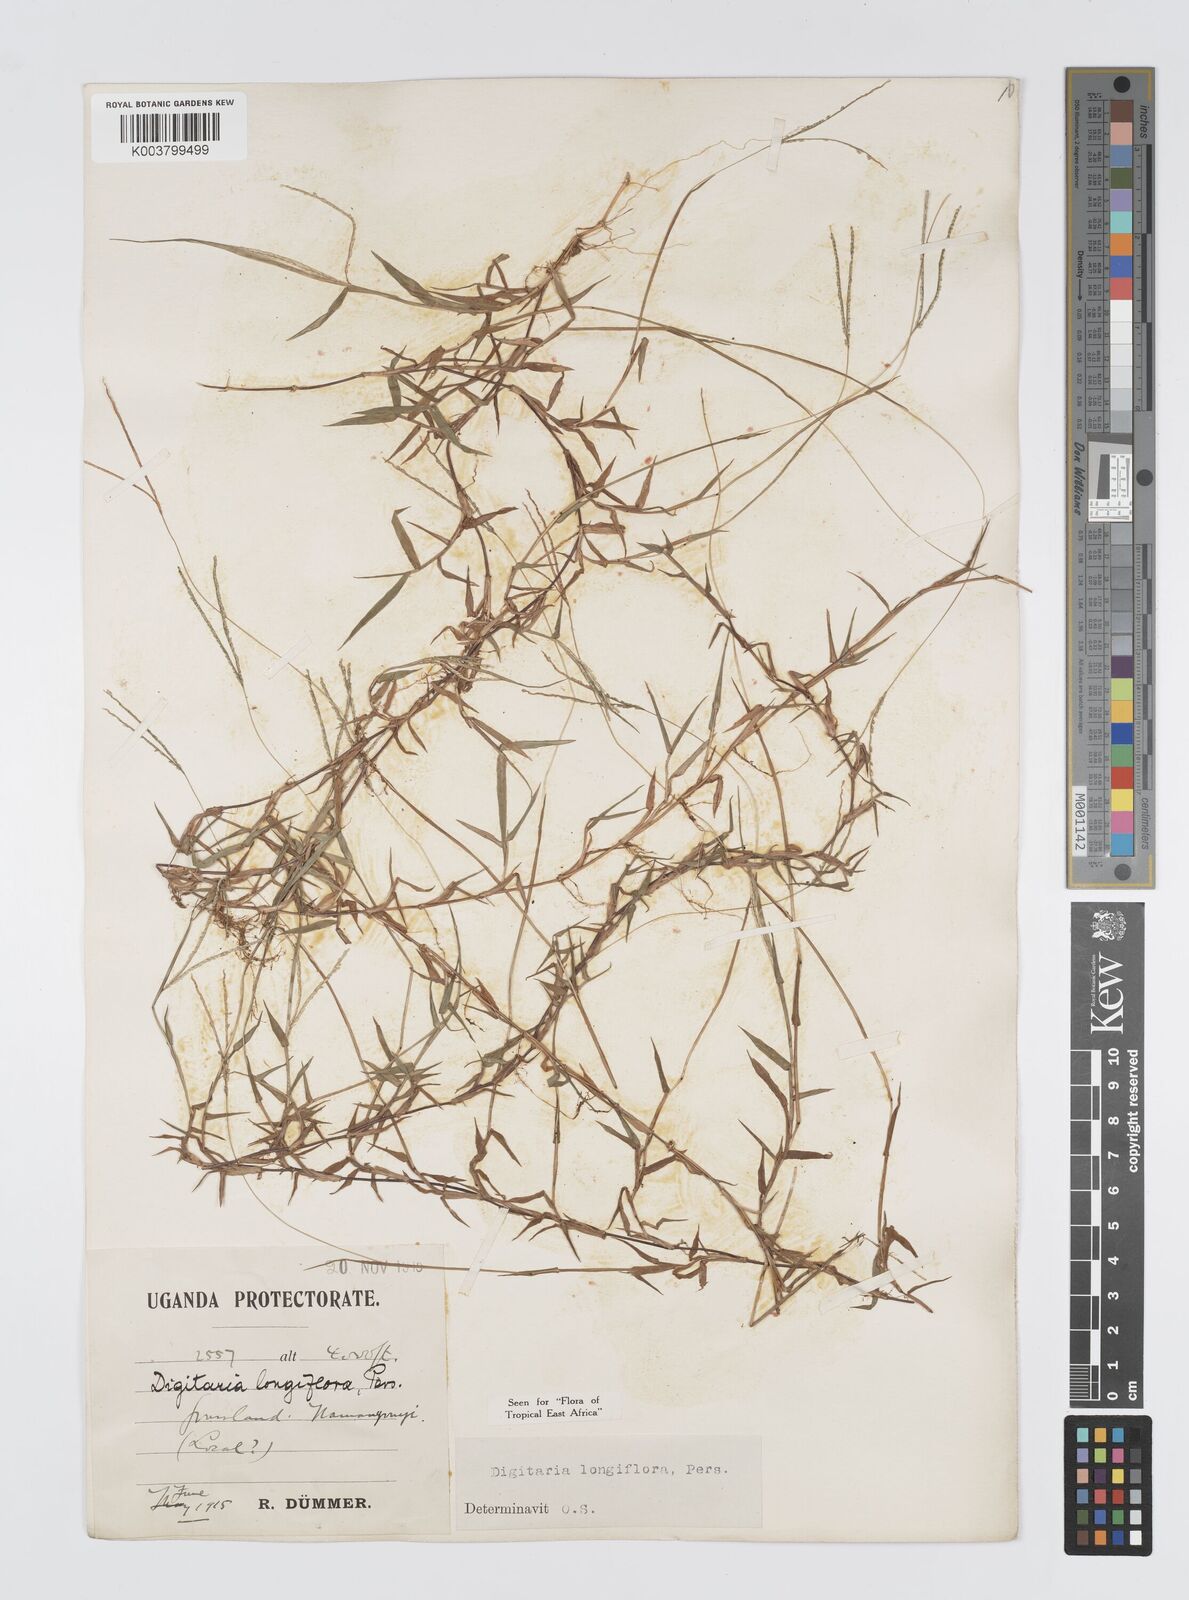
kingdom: Plantae
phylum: Tracheophyta
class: Liliopsida
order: Poales
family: Poaceae
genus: Digitaria
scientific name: Digitaria longiflora
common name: Wire crabgrass
